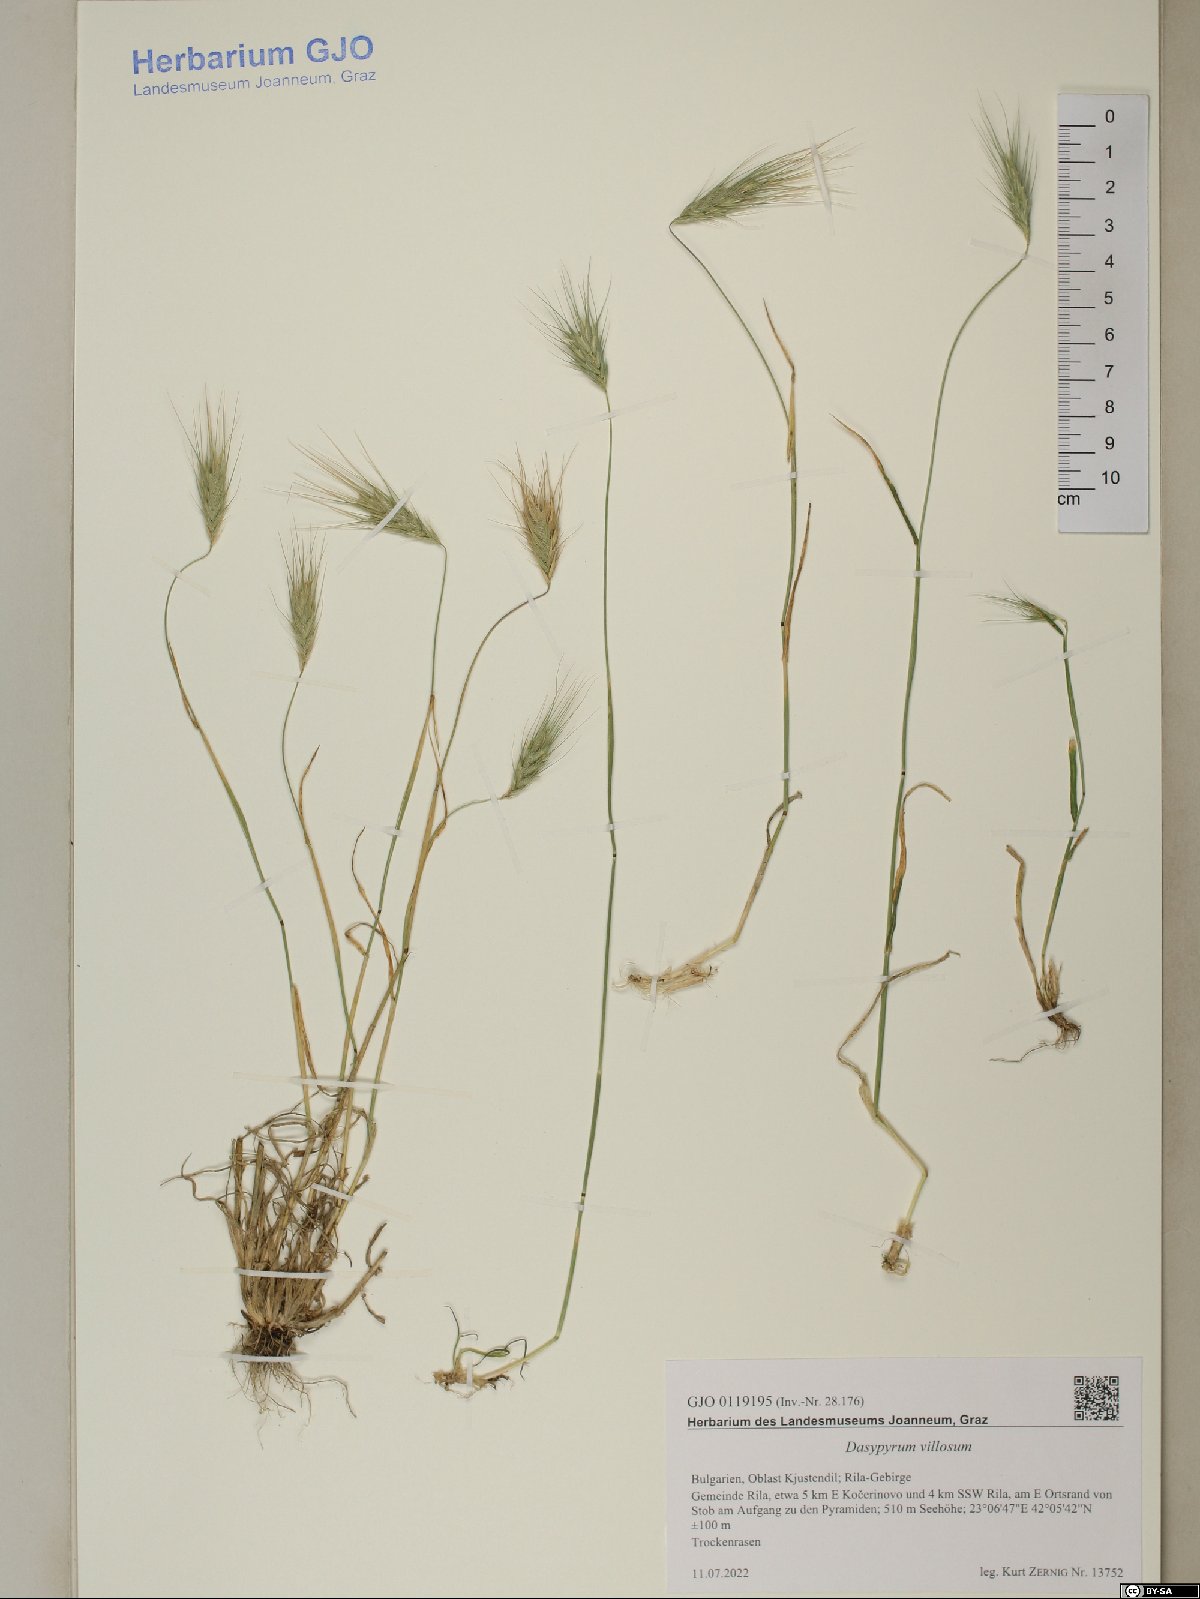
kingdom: Plantae
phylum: Tracheophyta
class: Liliopsida
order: Poales
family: Poaceae
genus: Dasypyrum
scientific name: Dasypyrum villosum
